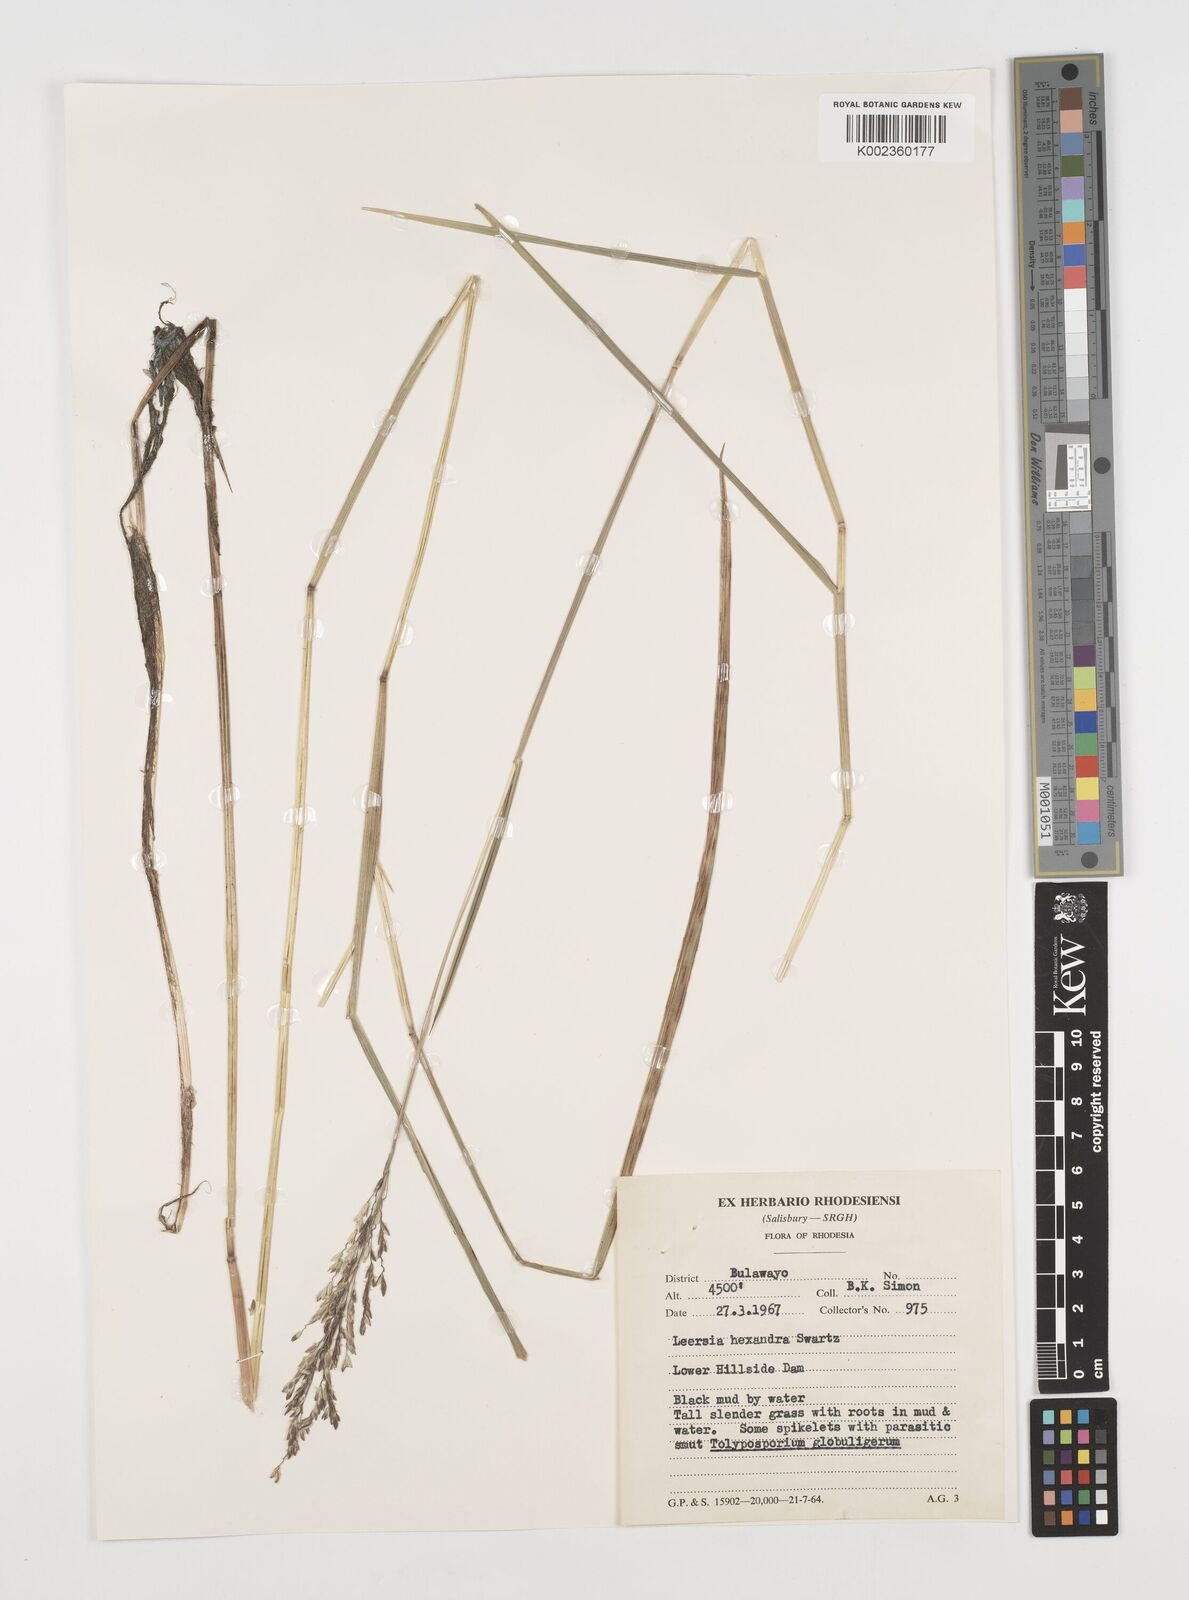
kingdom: Plantae
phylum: Tracheophyta
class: Liliopsida
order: Poales
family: Poaceae
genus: Leersia
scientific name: Leersia hexandra
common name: Southern cut grass
